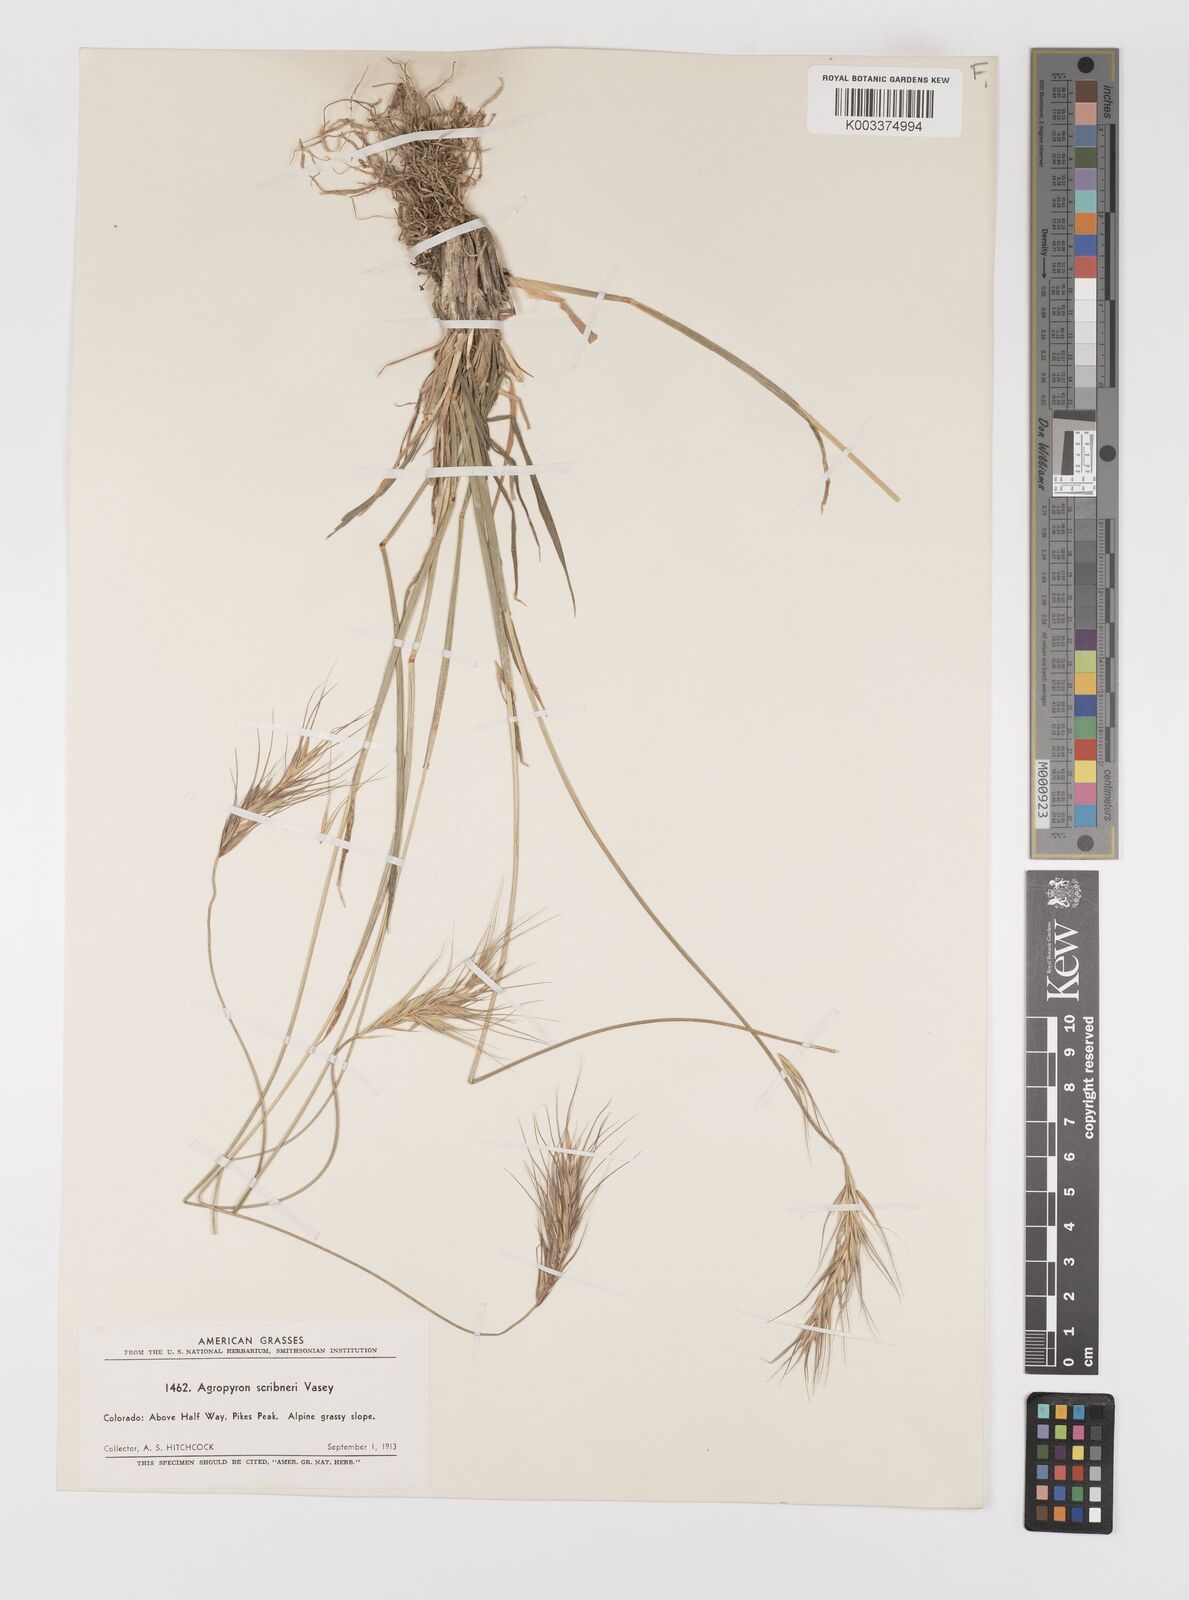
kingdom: Plantae
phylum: Tracheophyta
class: Liliopsida
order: Poales
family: Poaceae
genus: Elymus
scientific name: Elymus scribneri
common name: Scribner's wheatgrass
